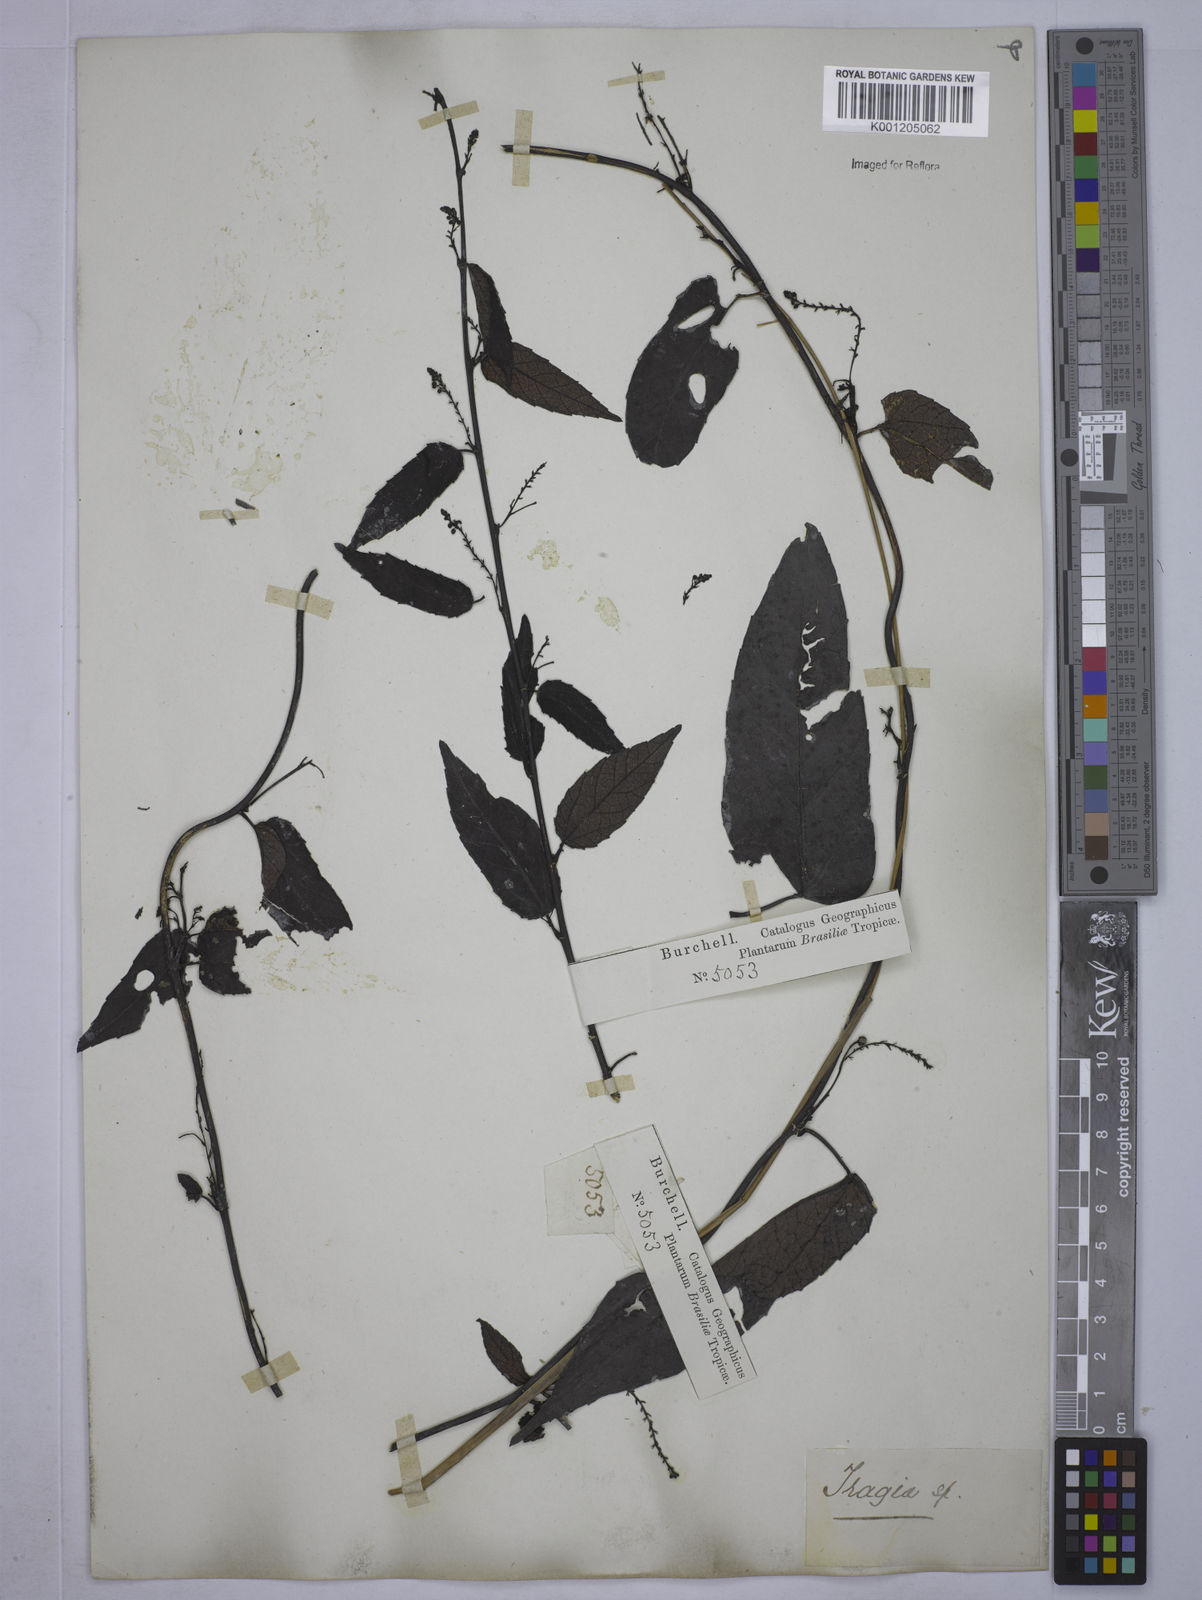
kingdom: Plantae
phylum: Tracheophyta
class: Magnoliopsida
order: Malpighiales
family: Euphorbiaceae
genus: Tragia
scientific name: Tragia peltata
